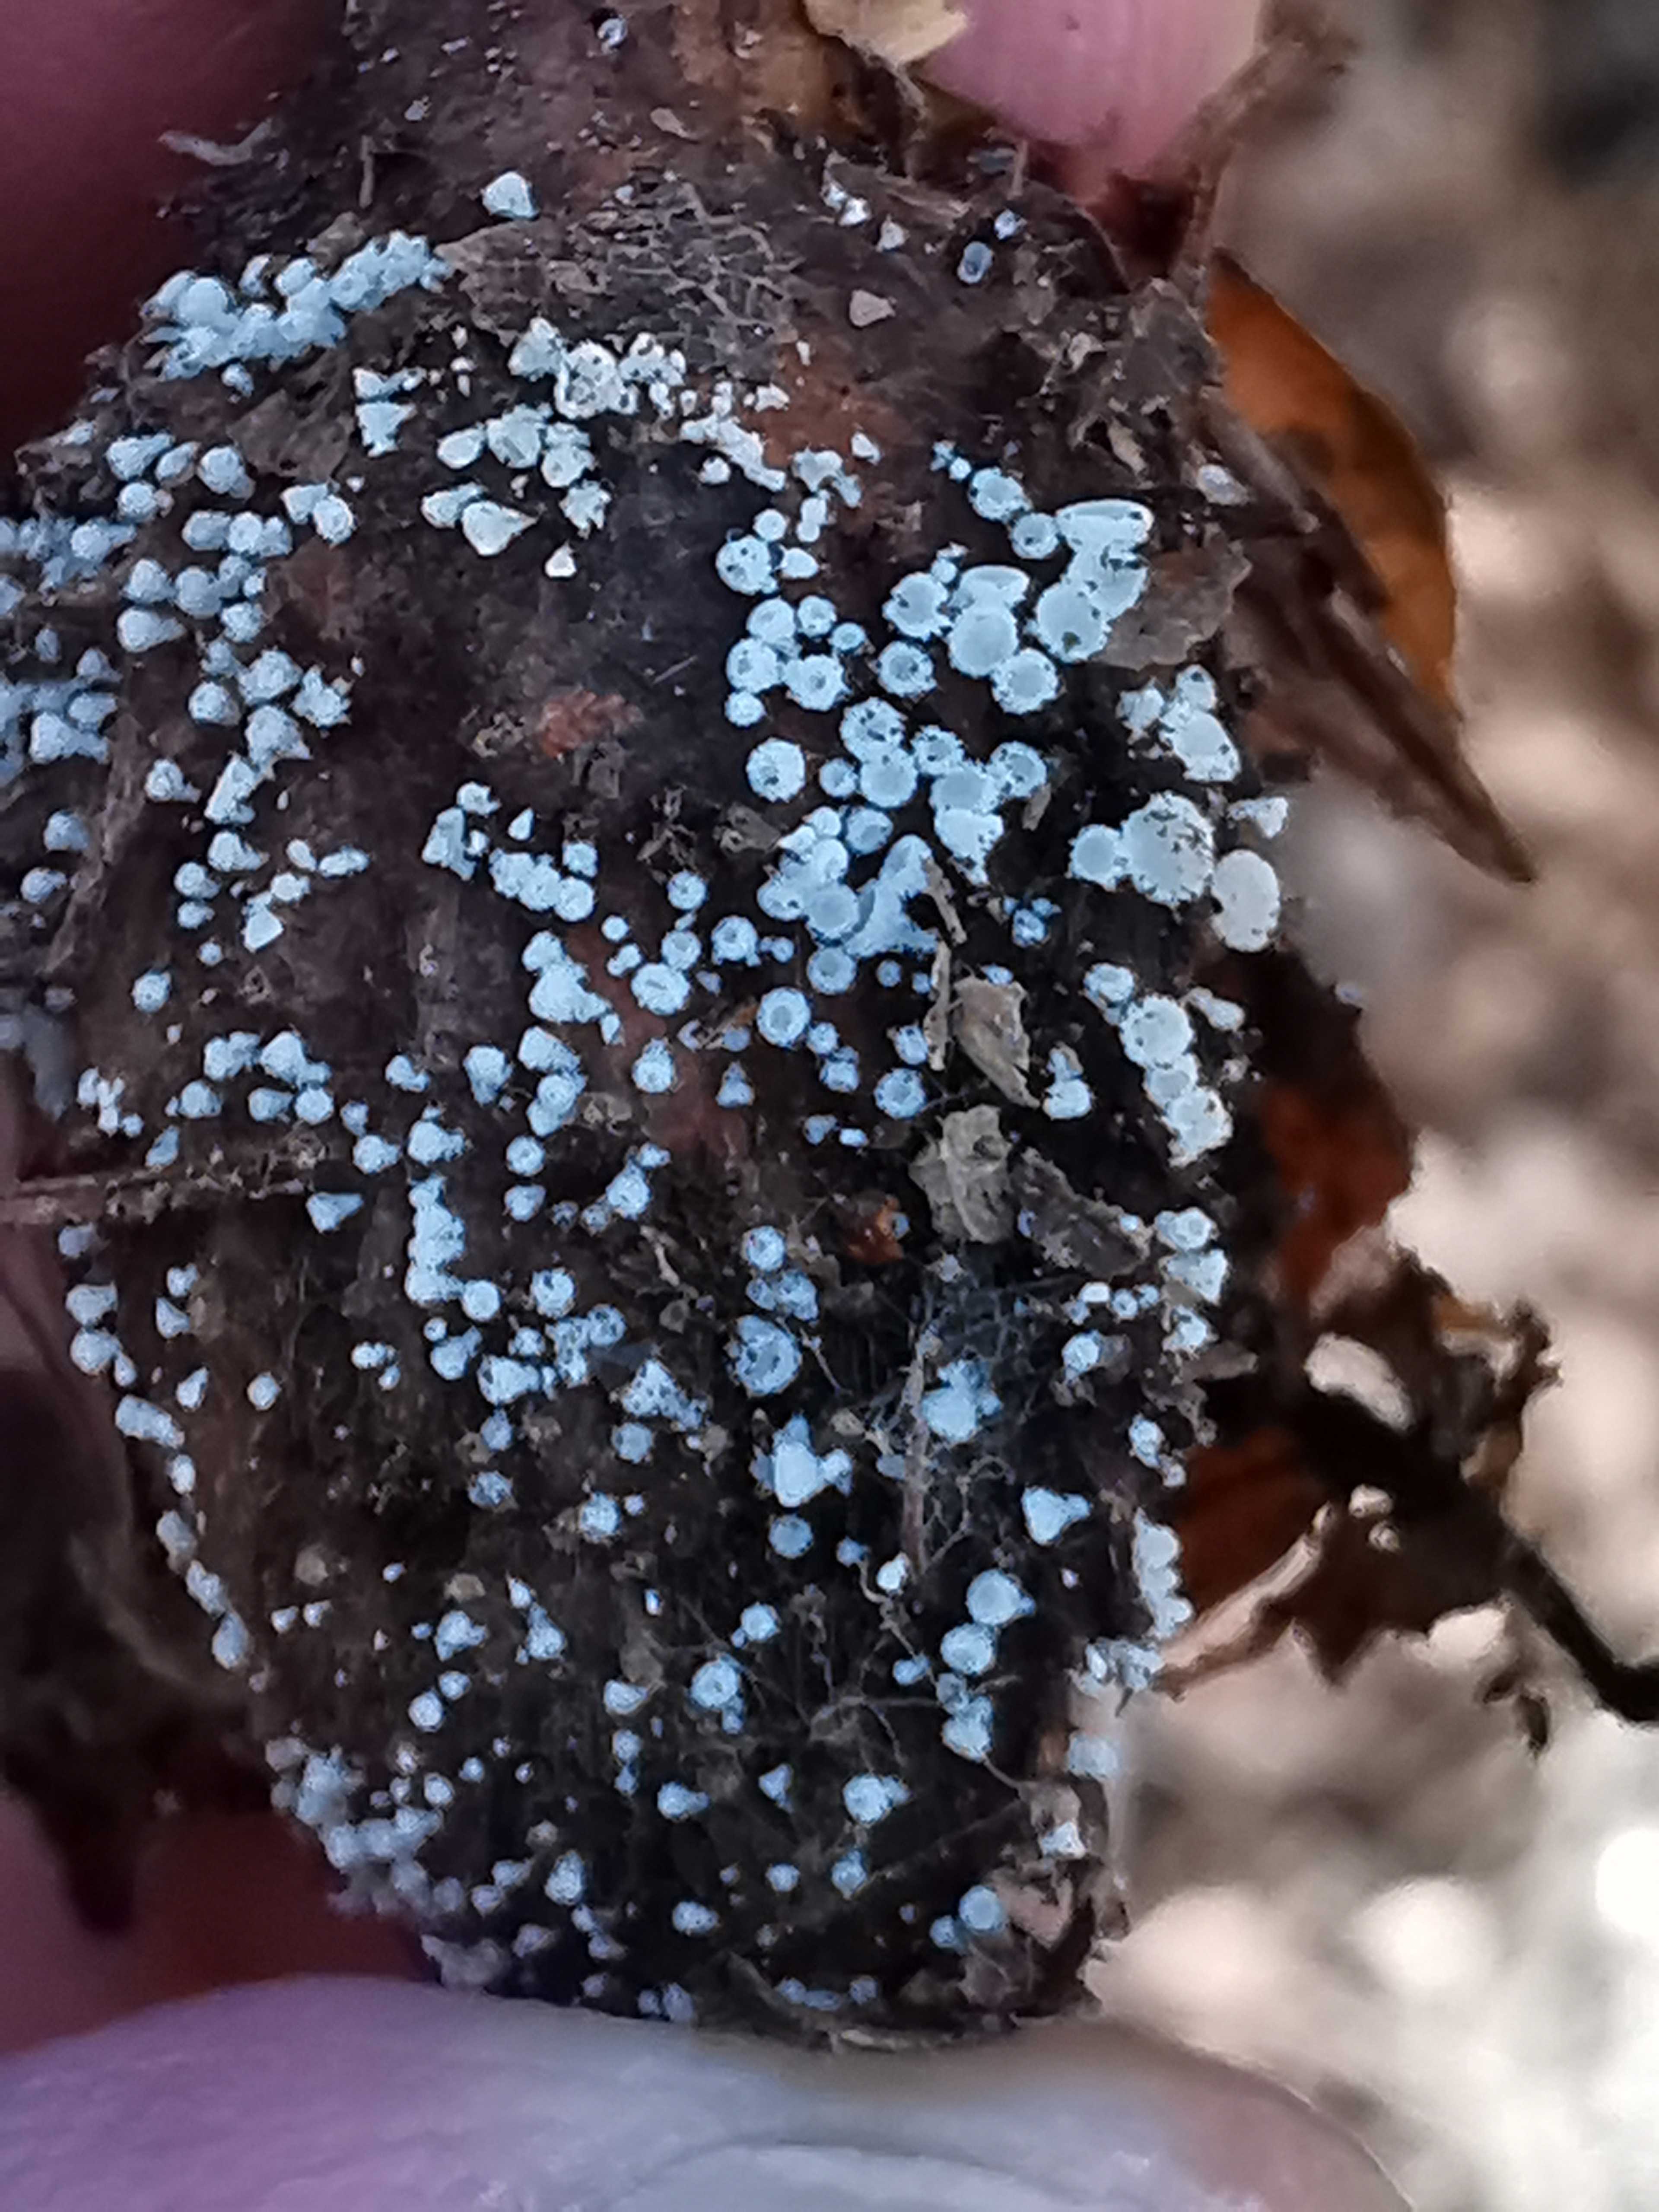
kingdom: Fungi
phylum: Ascomycota
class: Leotiomycetes
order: Helotiales
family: Lachnaceae
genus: Lachnum
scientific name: Lachnum virgineum
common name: jomfru-frynseskive
